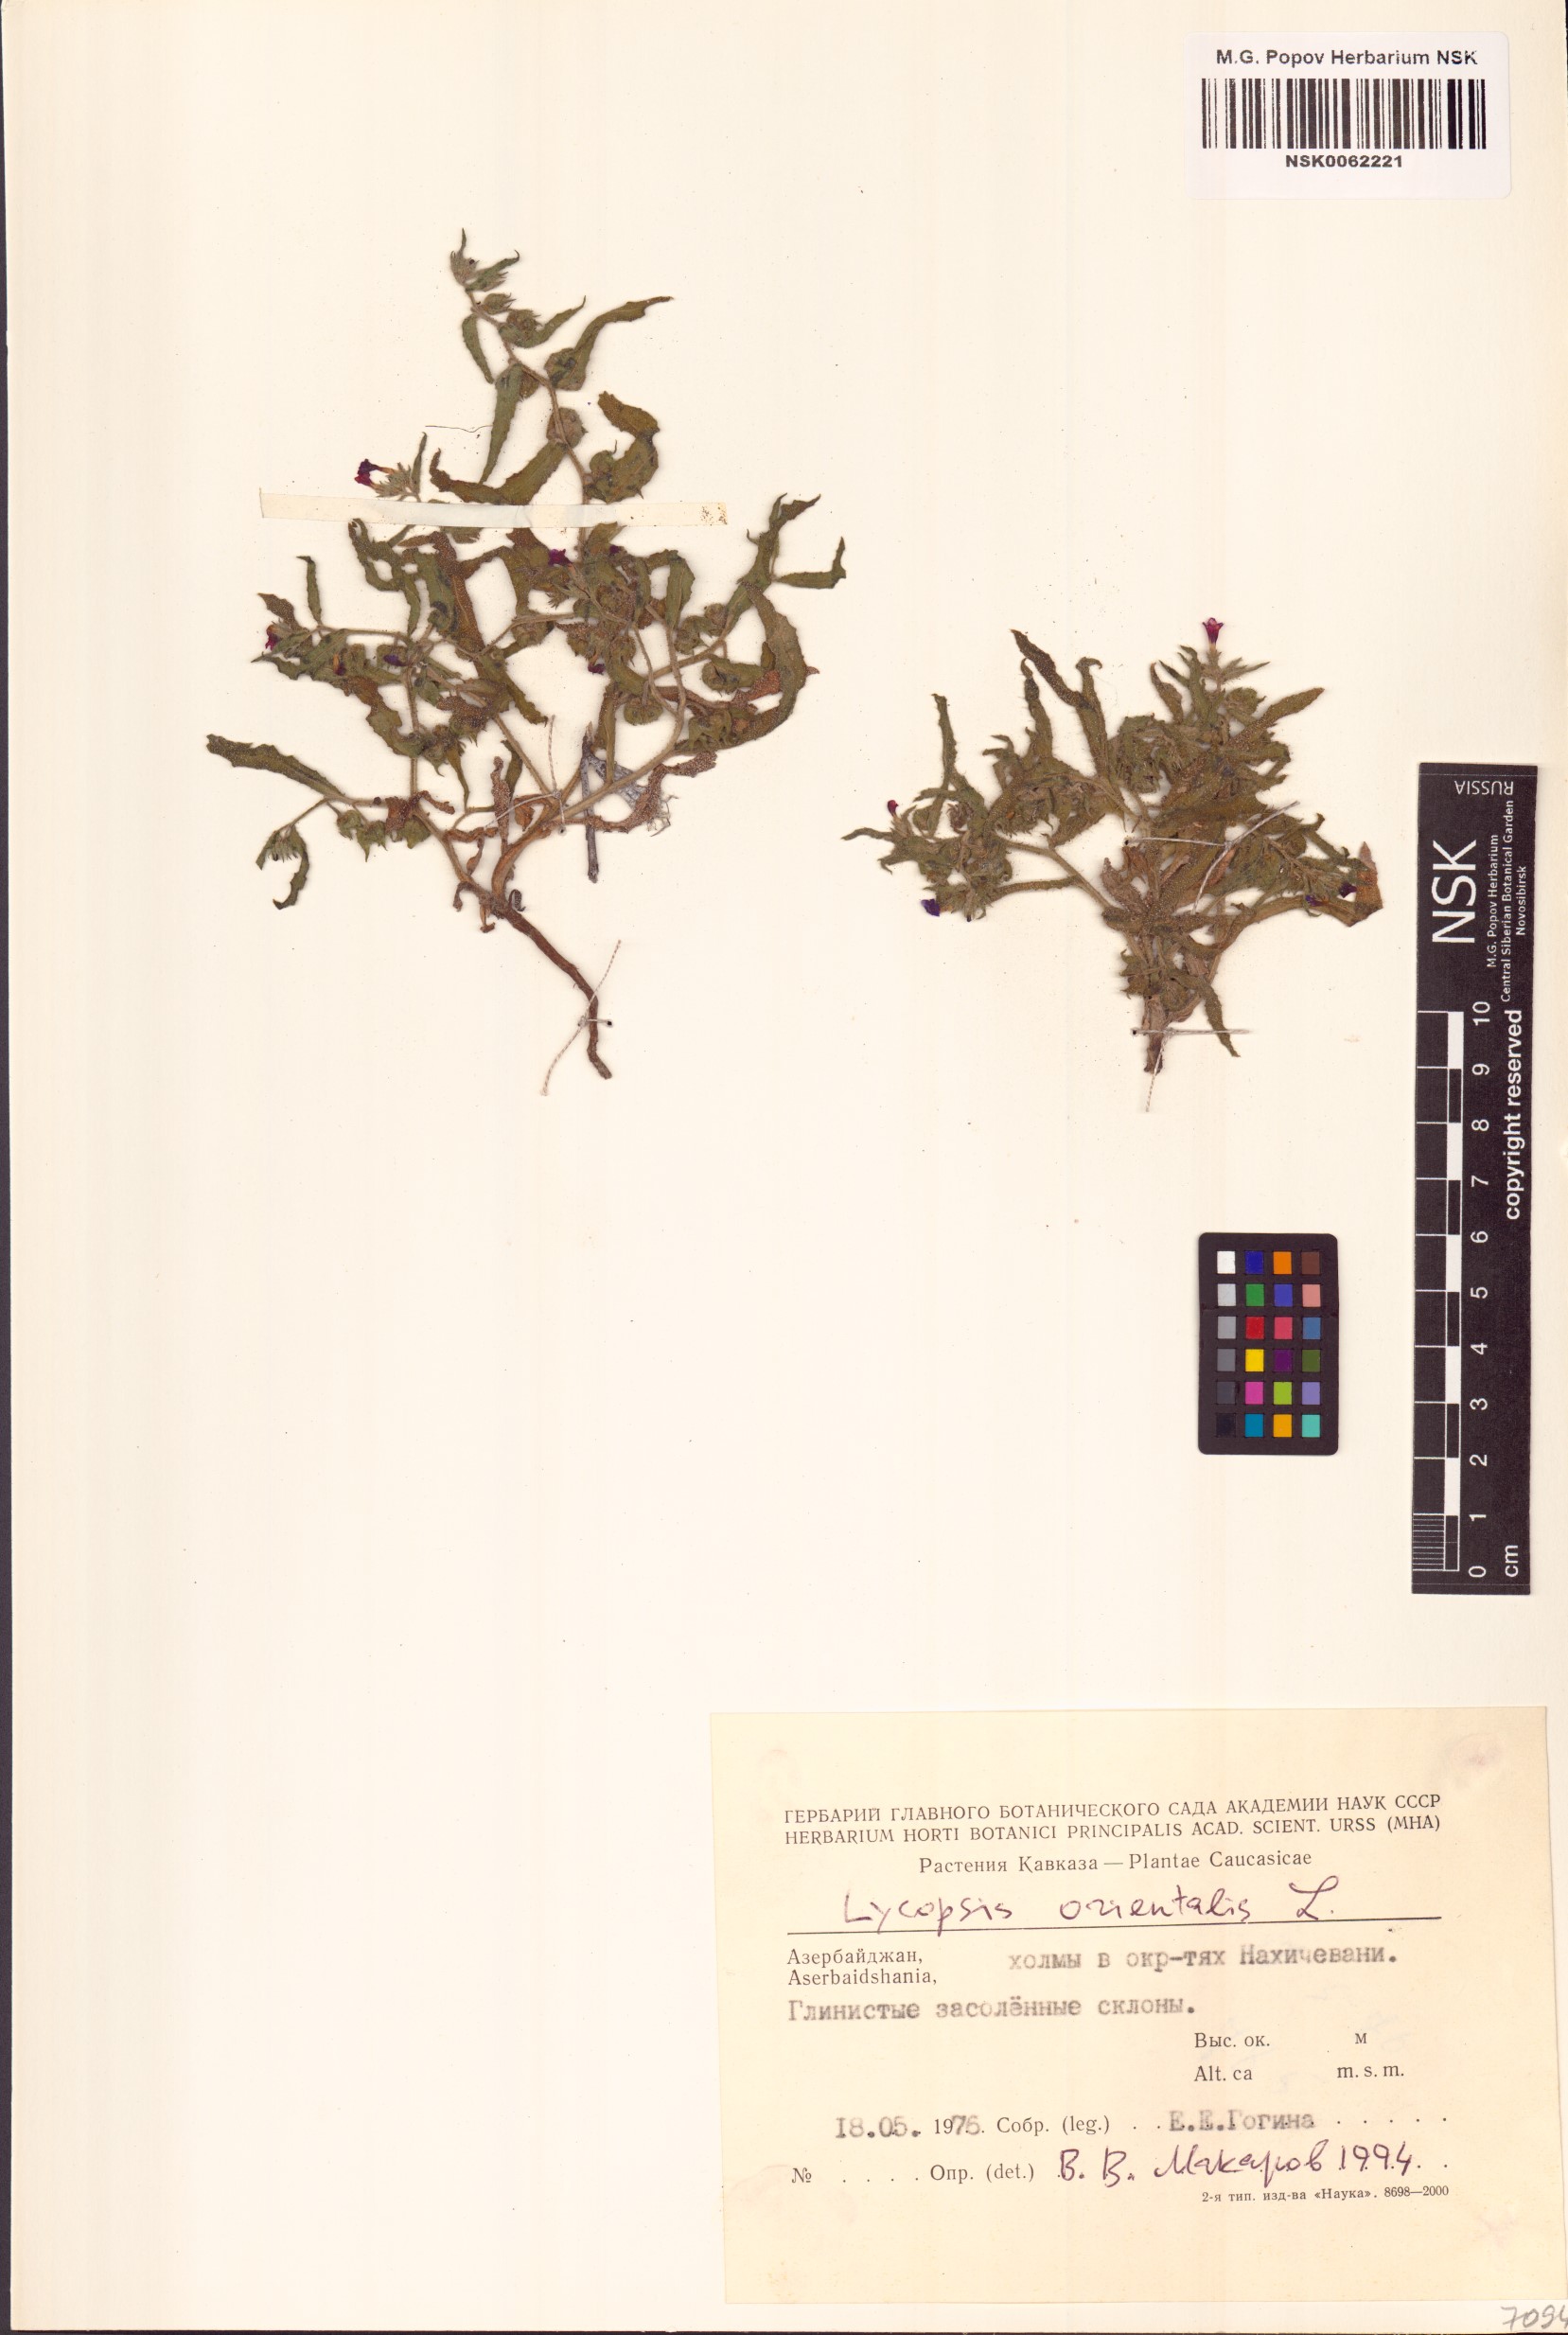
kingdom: Plantae
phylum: Tracheophyta
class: Magnoliopsida
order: Boraginales
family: Boraginaceae
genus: Lycopsis
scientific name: Lycopsis arvensis
